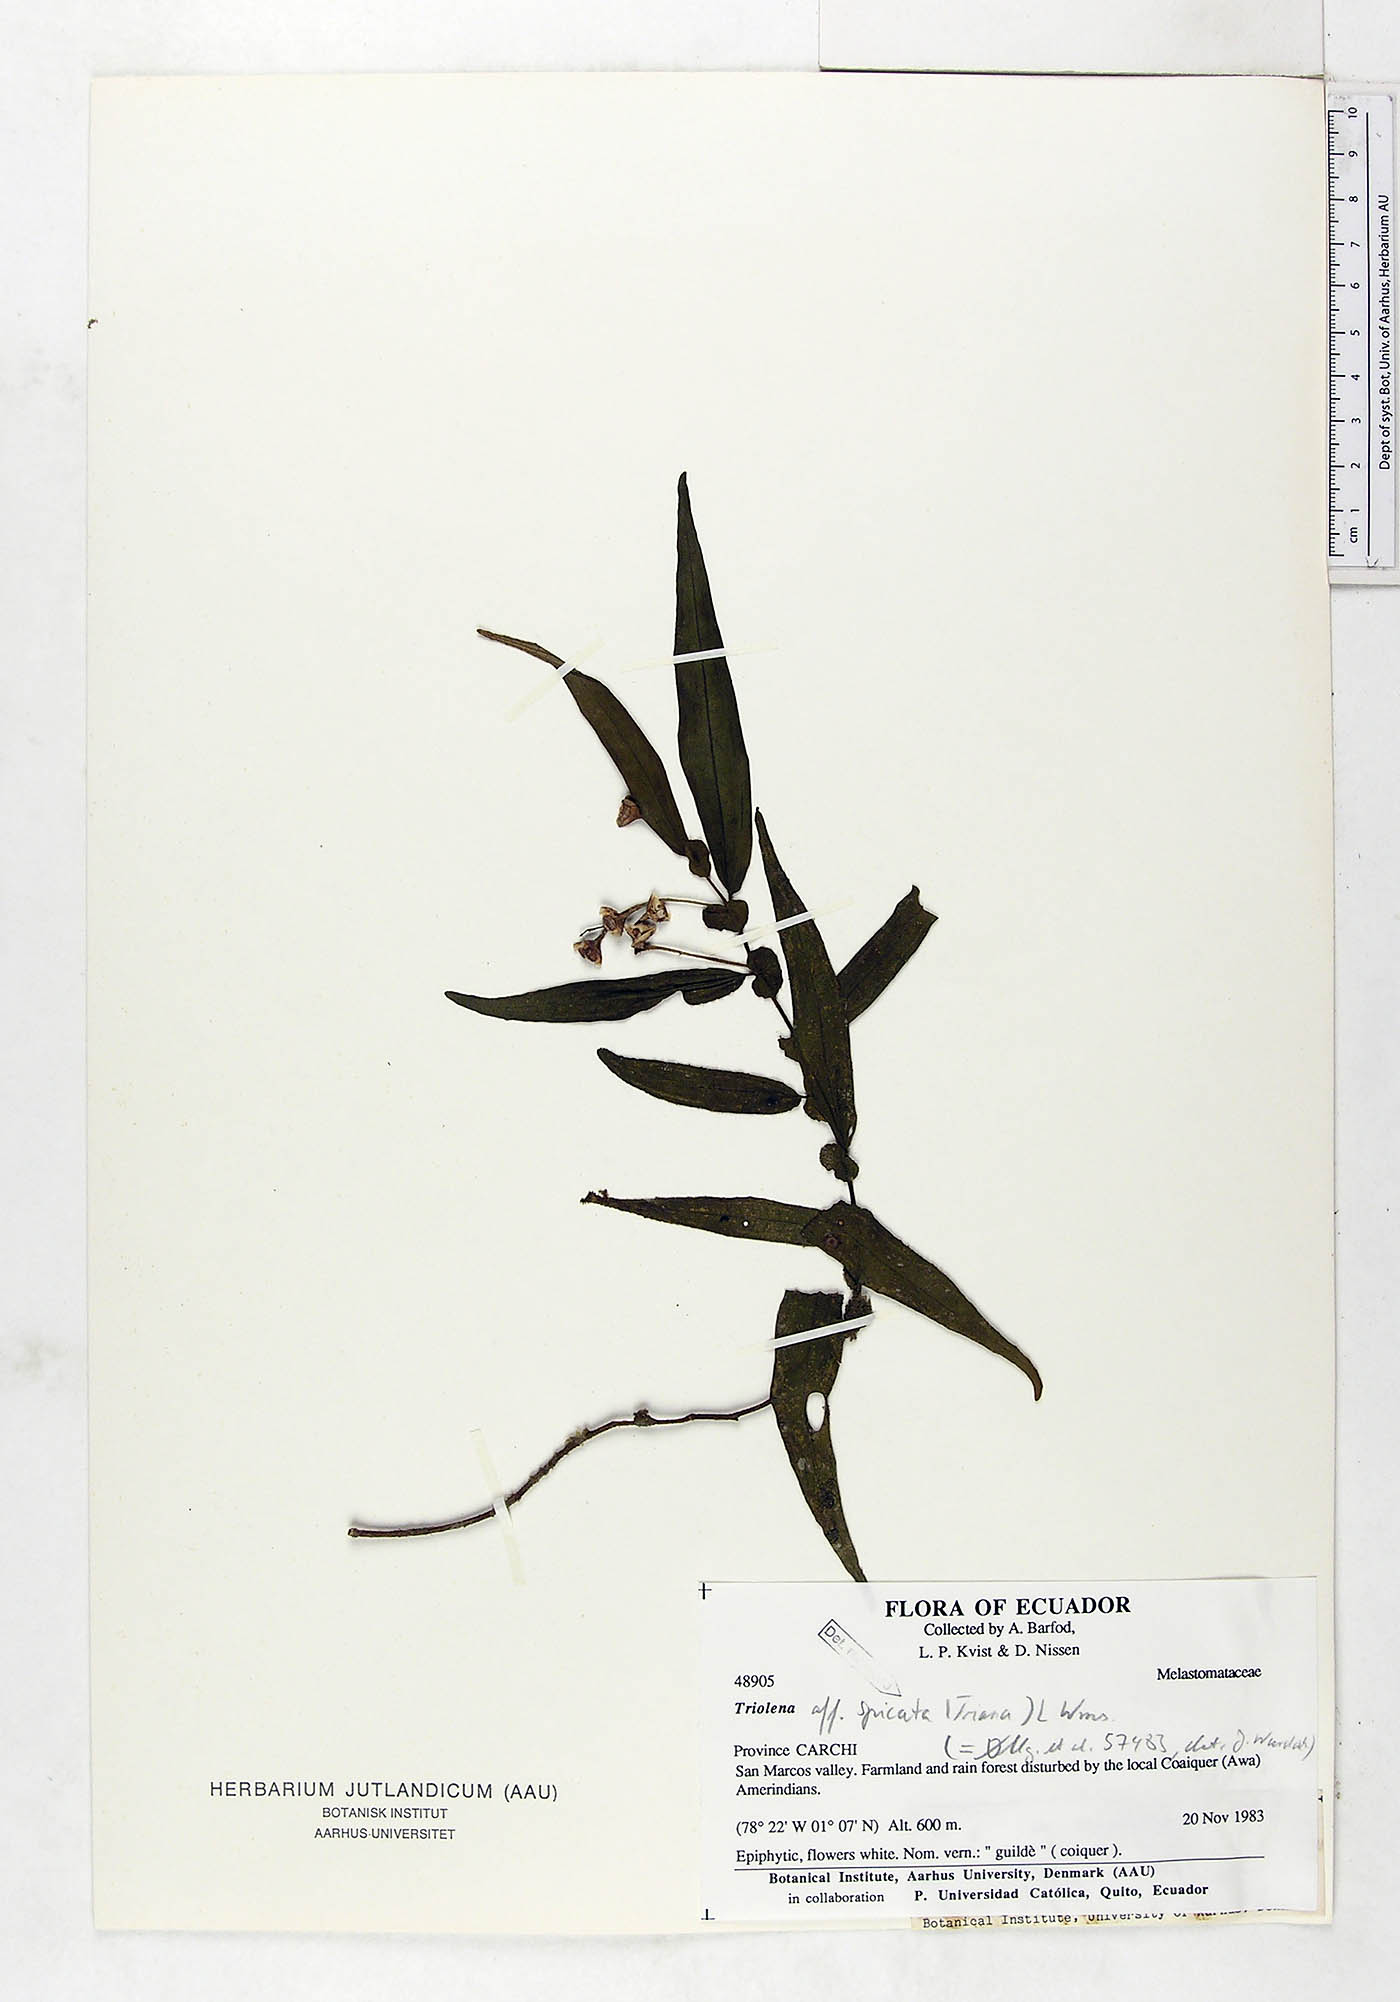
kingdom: Plantae
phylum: Tracheophyta
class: Magnoliopsida
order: Myrtales
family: Melastomataceae
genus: Triolena
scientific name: Triolena spicata
